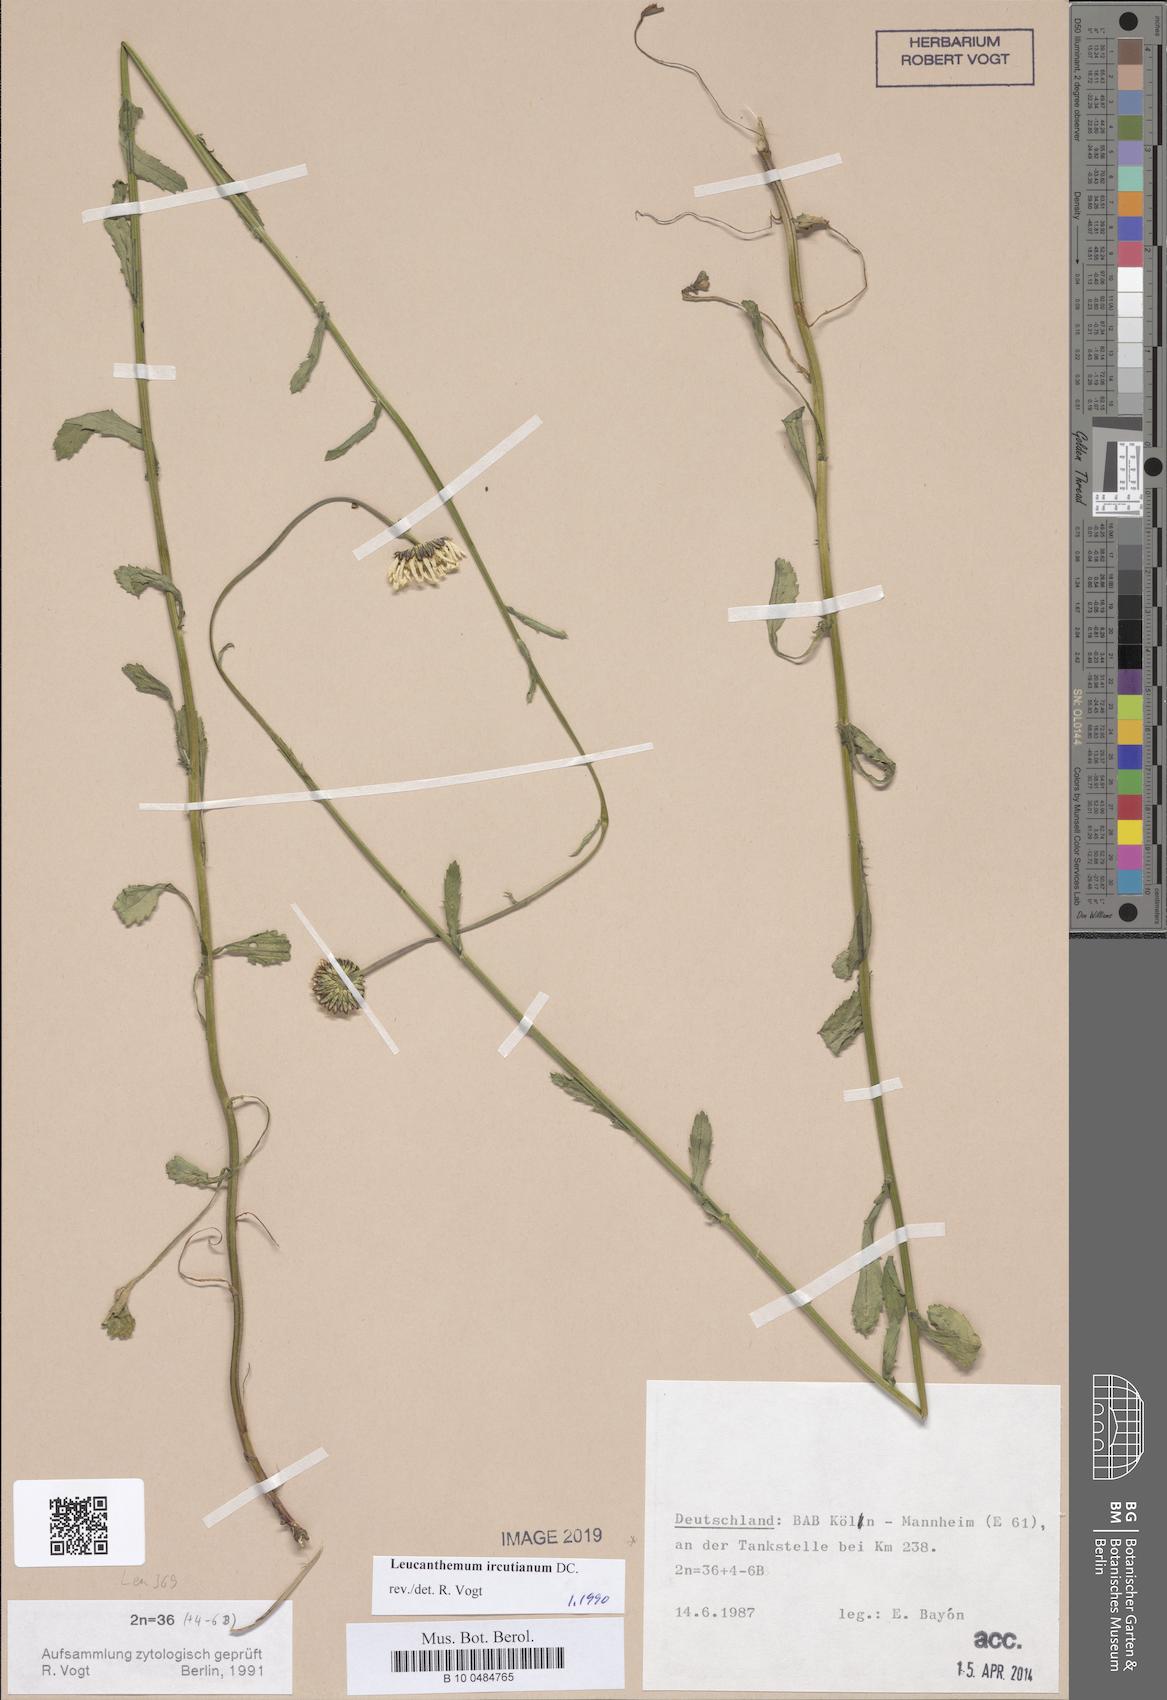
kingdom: Plantae
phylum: Tracheophyta
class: Magnoliopsida
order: Asterales
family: Asteraceae
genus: Leucanthemum
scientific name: Leucanthemum ircutianum
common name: Daisy
